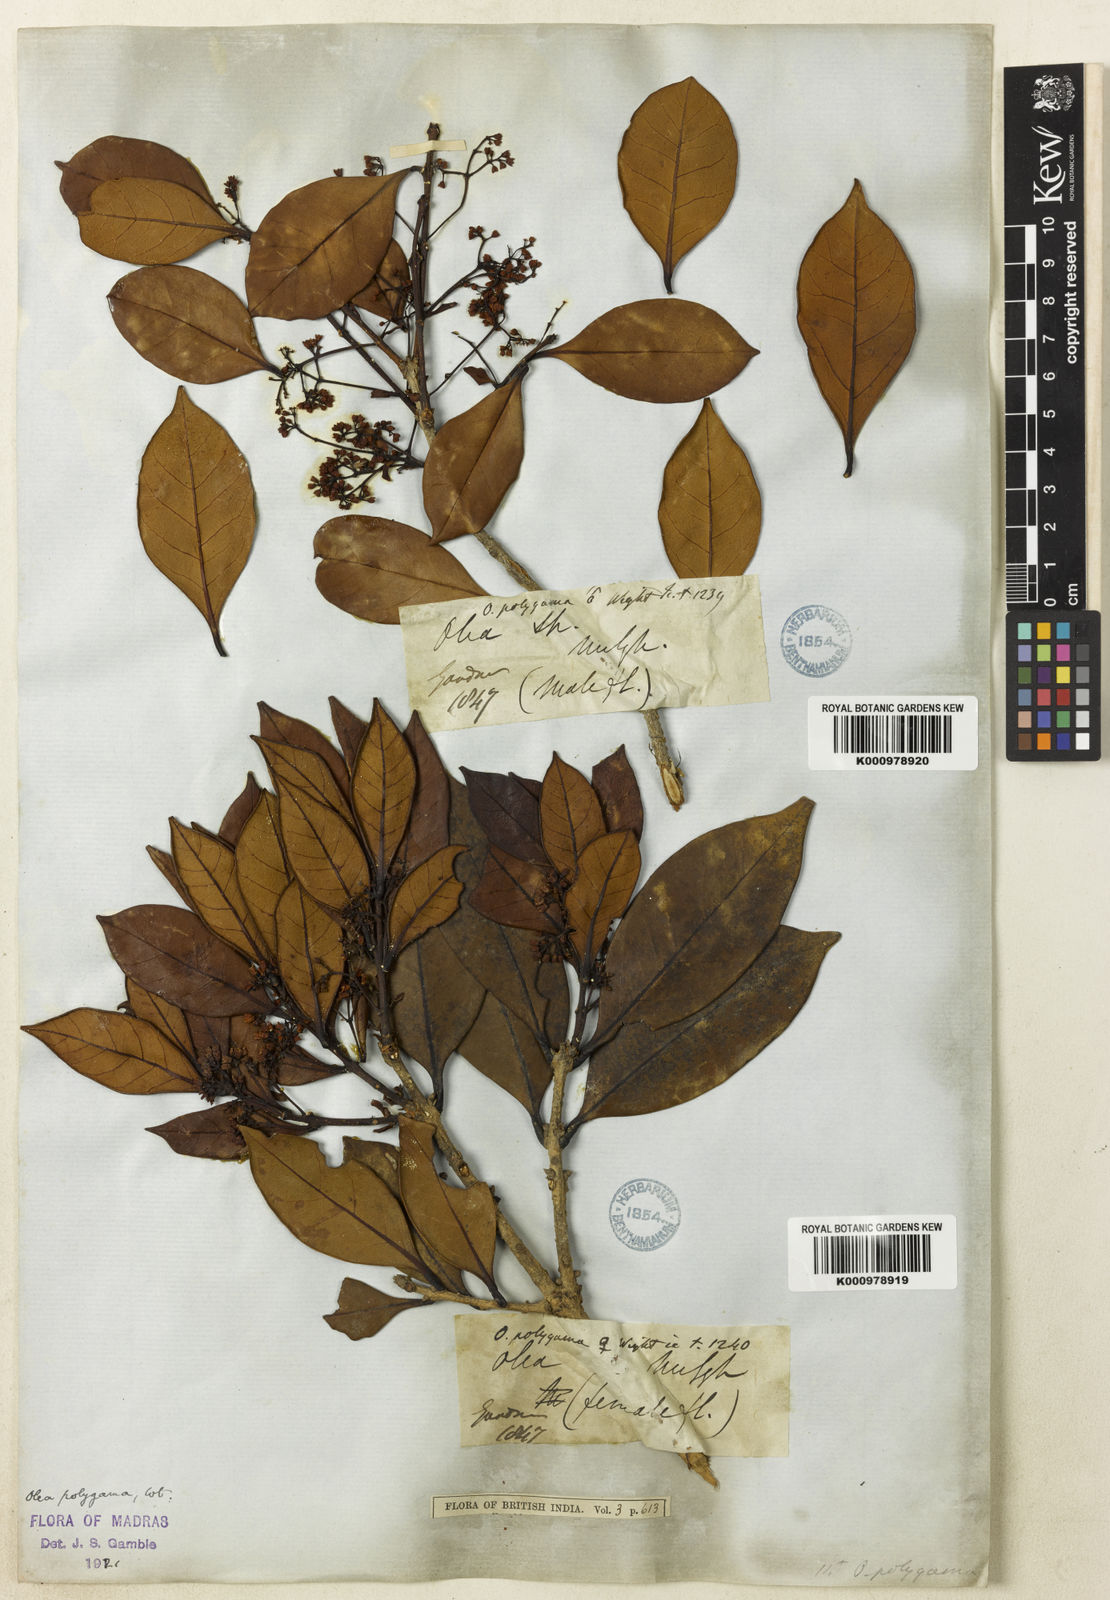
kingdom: Plantae
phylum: Tracheophyta
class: Magnoliopsida
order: Lamiales
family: Oleaceae
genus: Tetrapilus
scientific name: Tetrapilus polygamus
